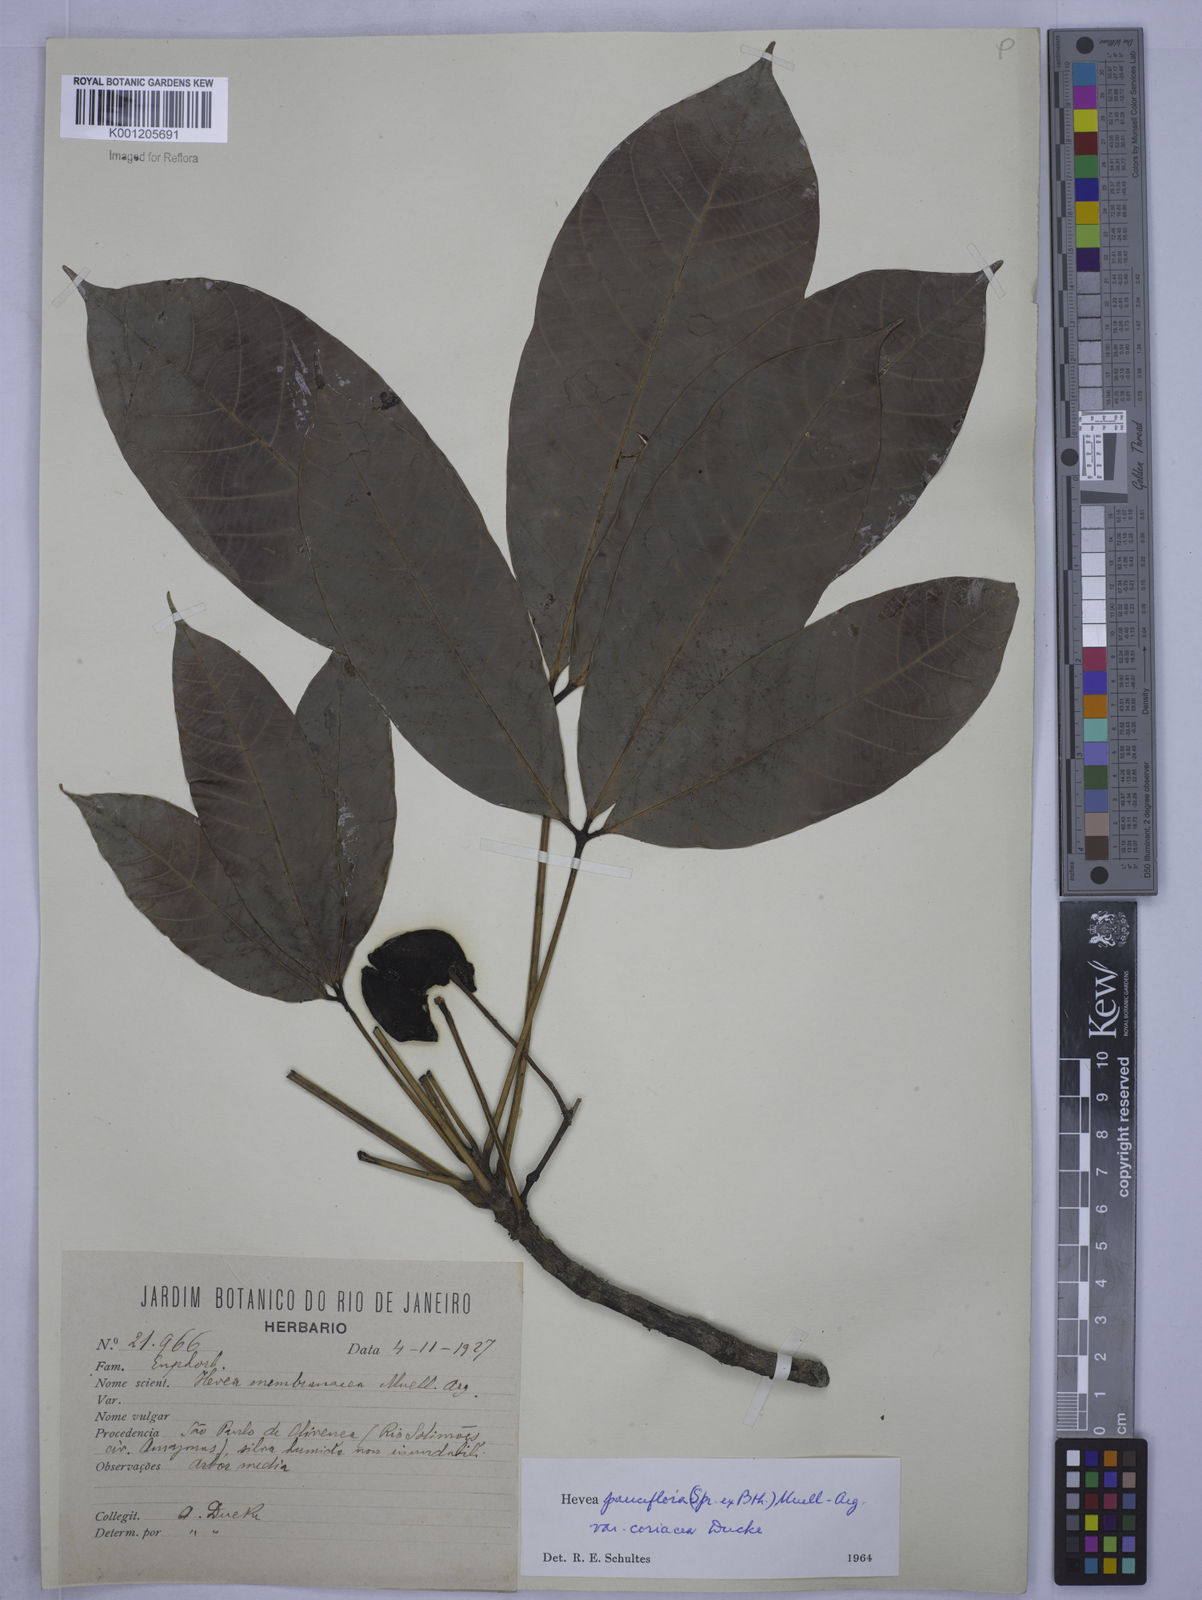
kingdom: Plantae
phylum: Tracheophyta
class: Magnoliopsida
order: Malpighiales
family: Euphorbiaceae
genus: Hevea
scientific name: Hevea pauciflora
